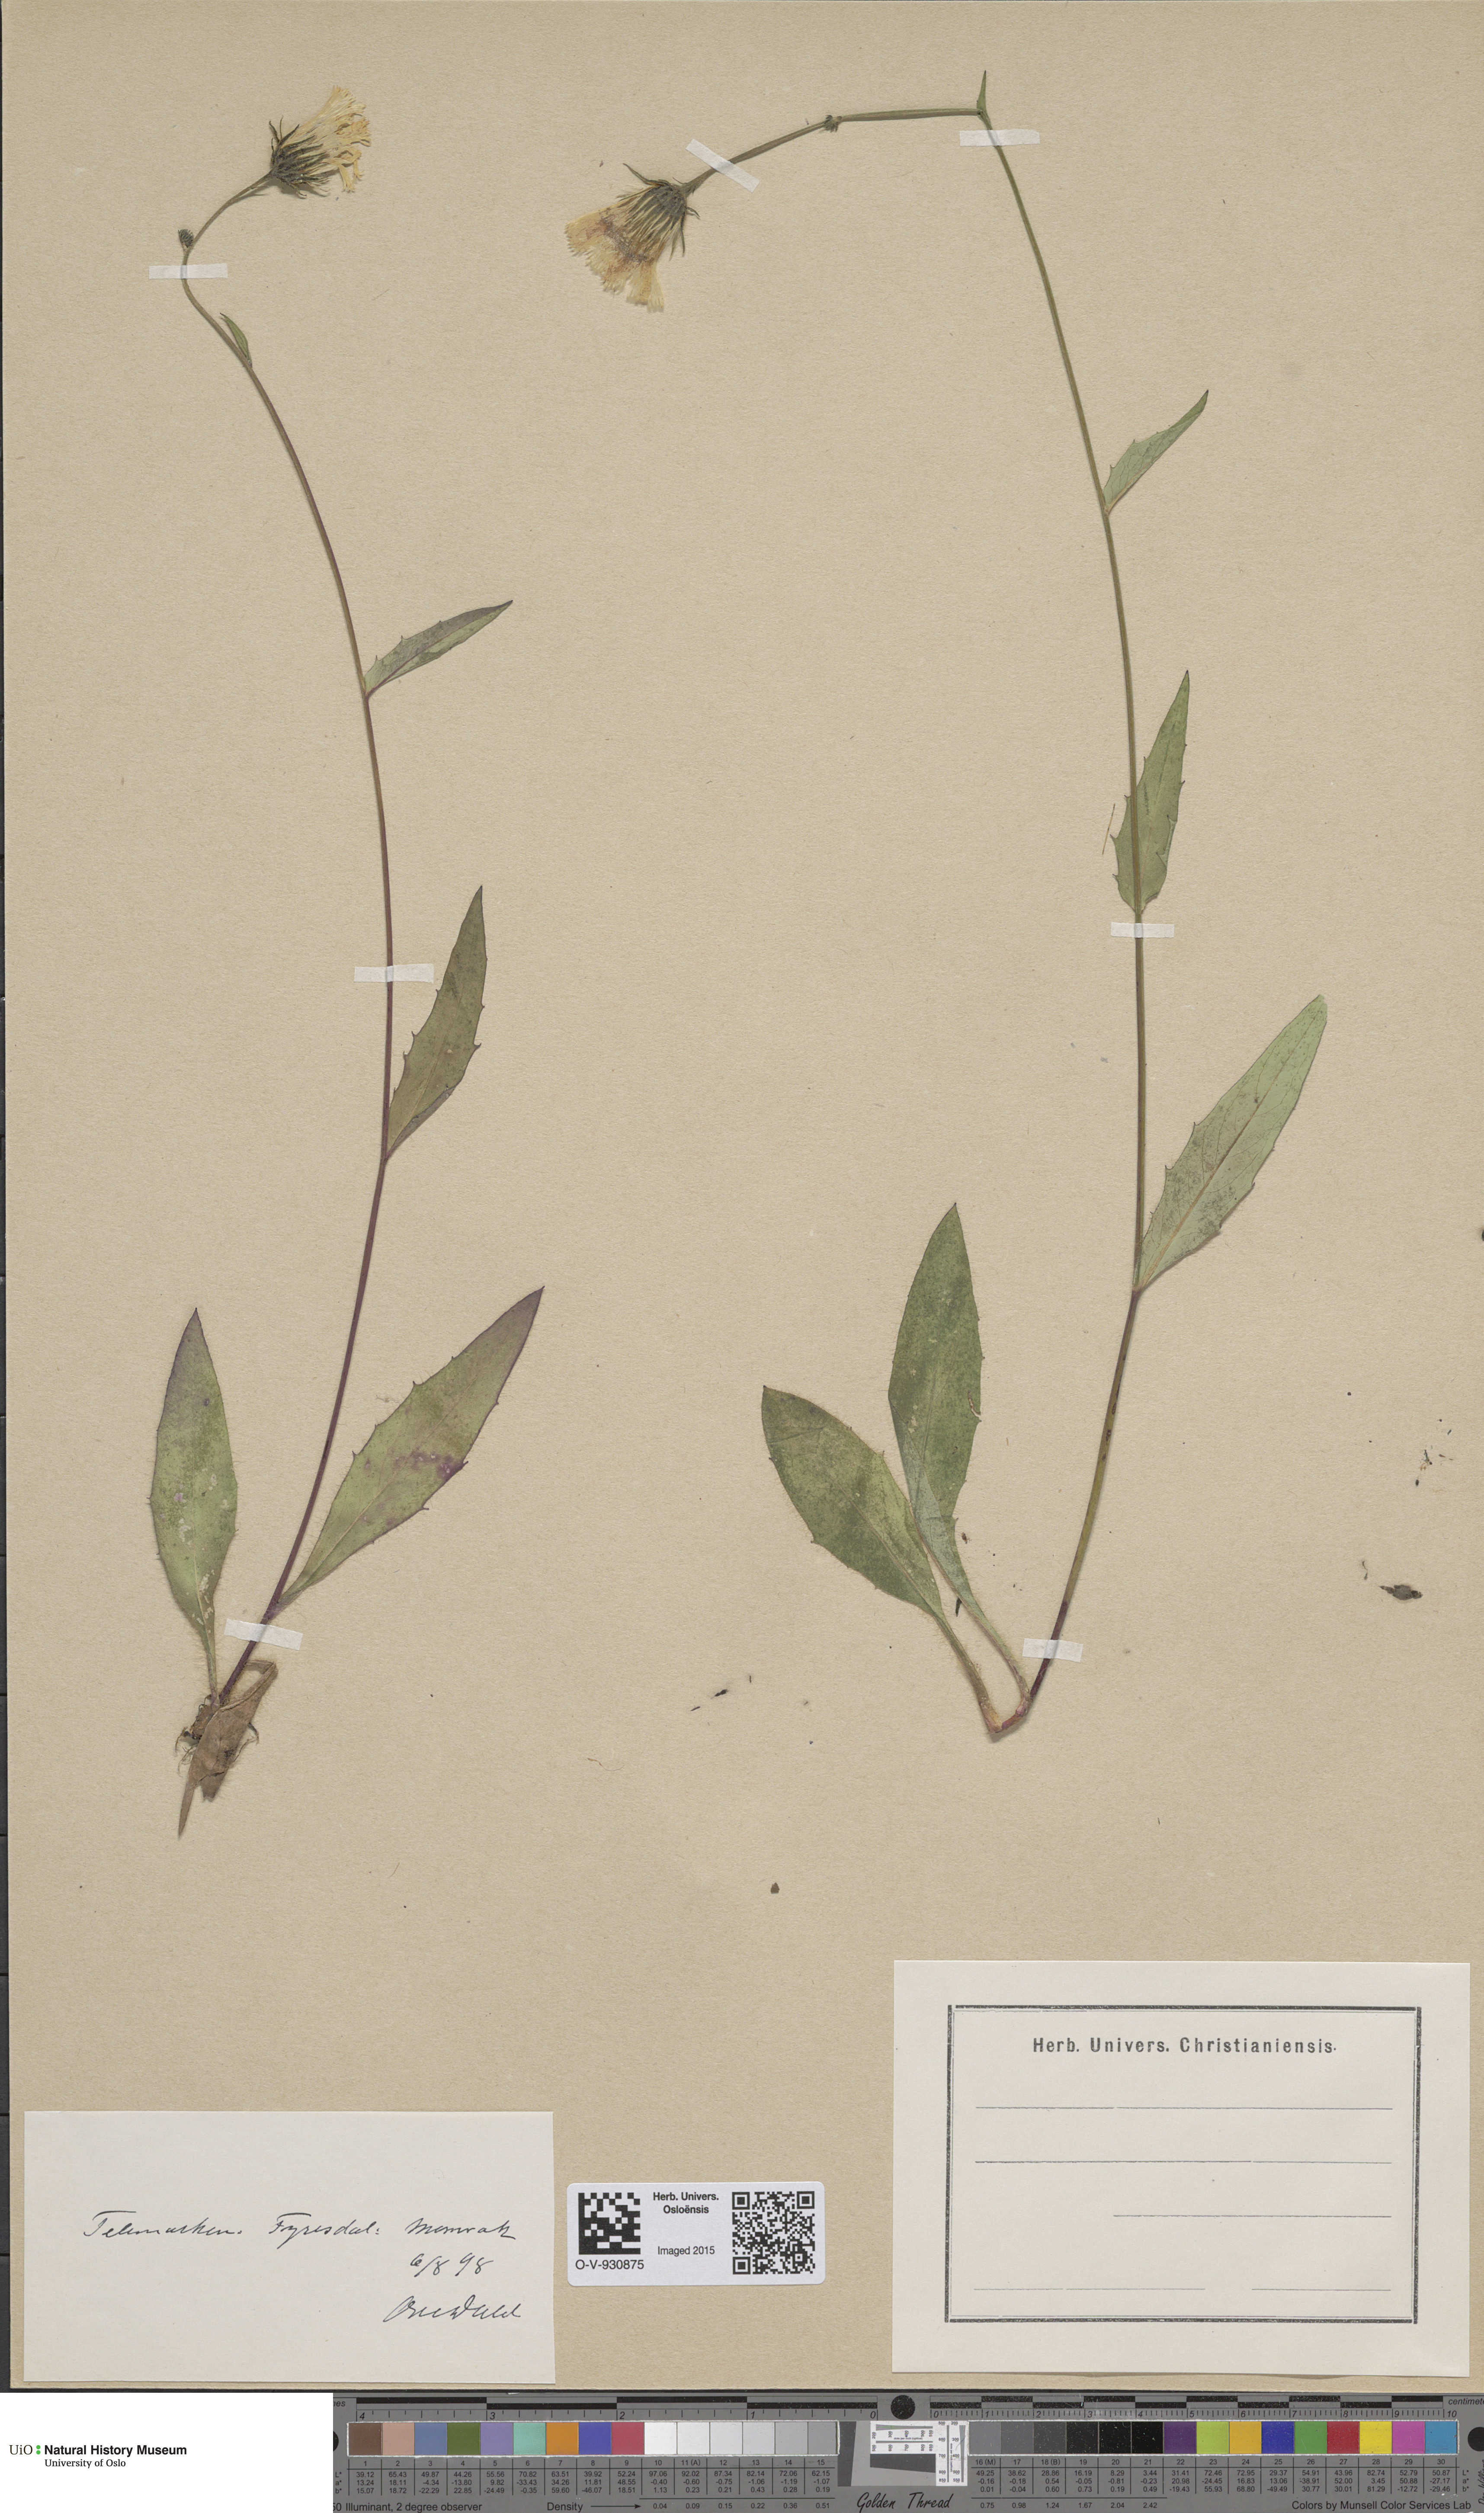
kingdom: Plantae
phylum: Tracheophyta
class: Magnoliopsida
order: Asterales
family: Asteraceae
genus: Hieracium
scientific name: Hieracium saxifragum
